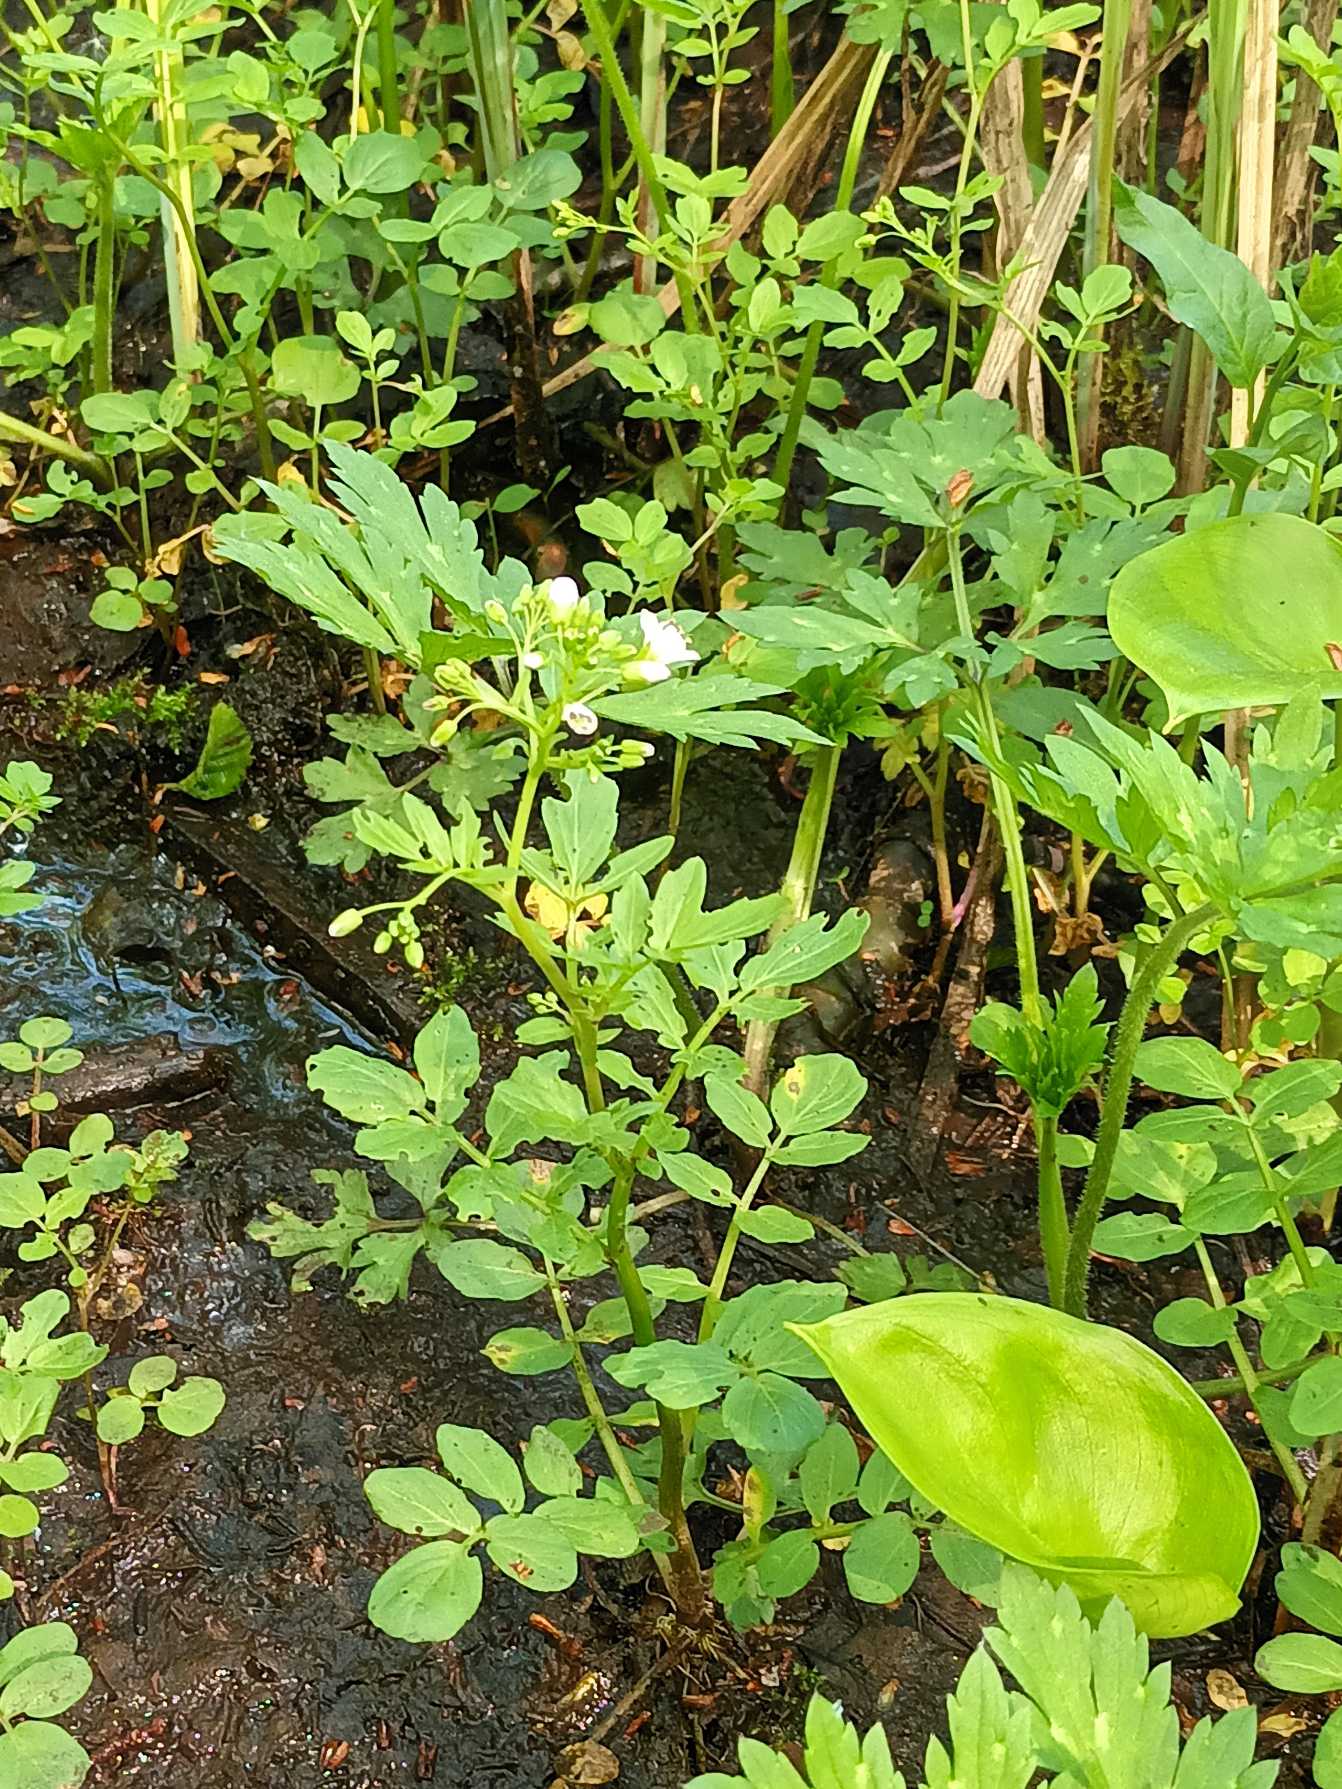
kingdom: Plantae
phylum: Tracheophyta
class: Magnoliopsida
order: Brassicales
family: Brassicaceae
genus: Cardamine
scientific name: Cardamine amara
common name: Vandkarse
